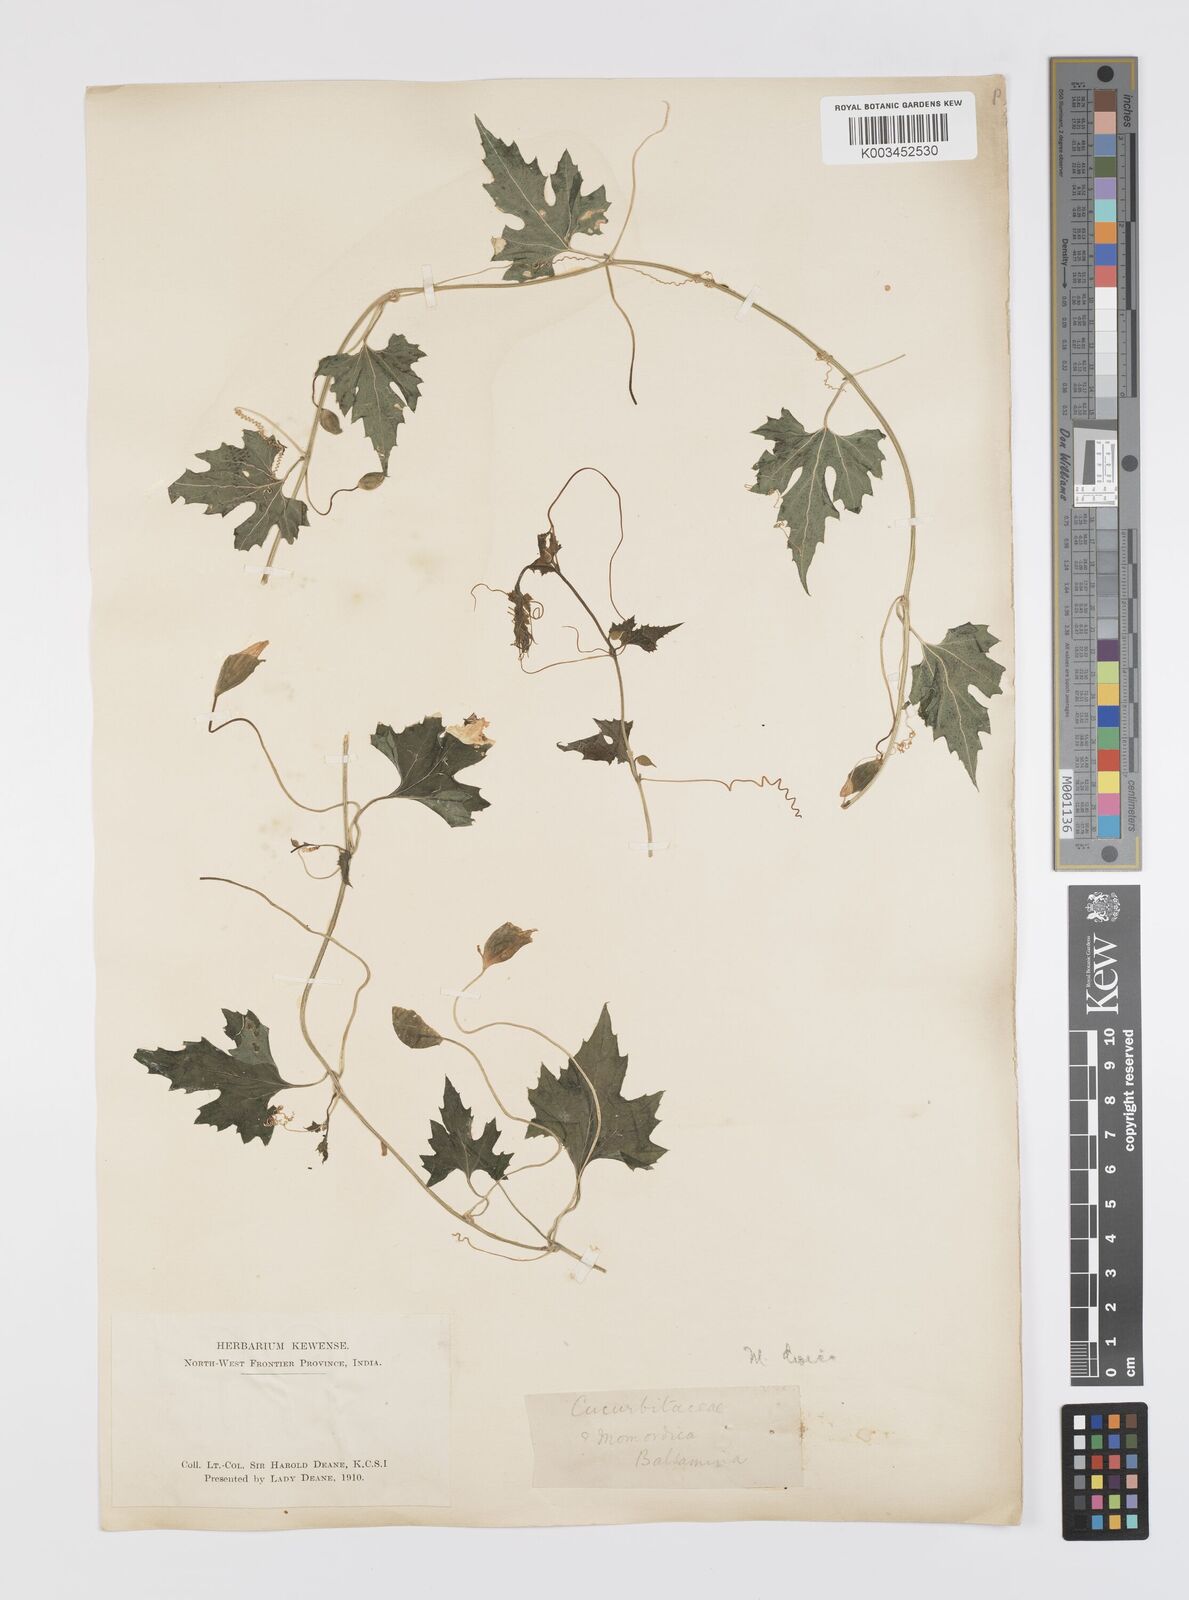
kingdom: Plantae
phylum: Tracheophyta
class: Magnoliopsida
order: Cucurbitales
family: Cucurbitaceae
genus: Momordica
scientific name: Momordica dioica
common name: Spine gourd
